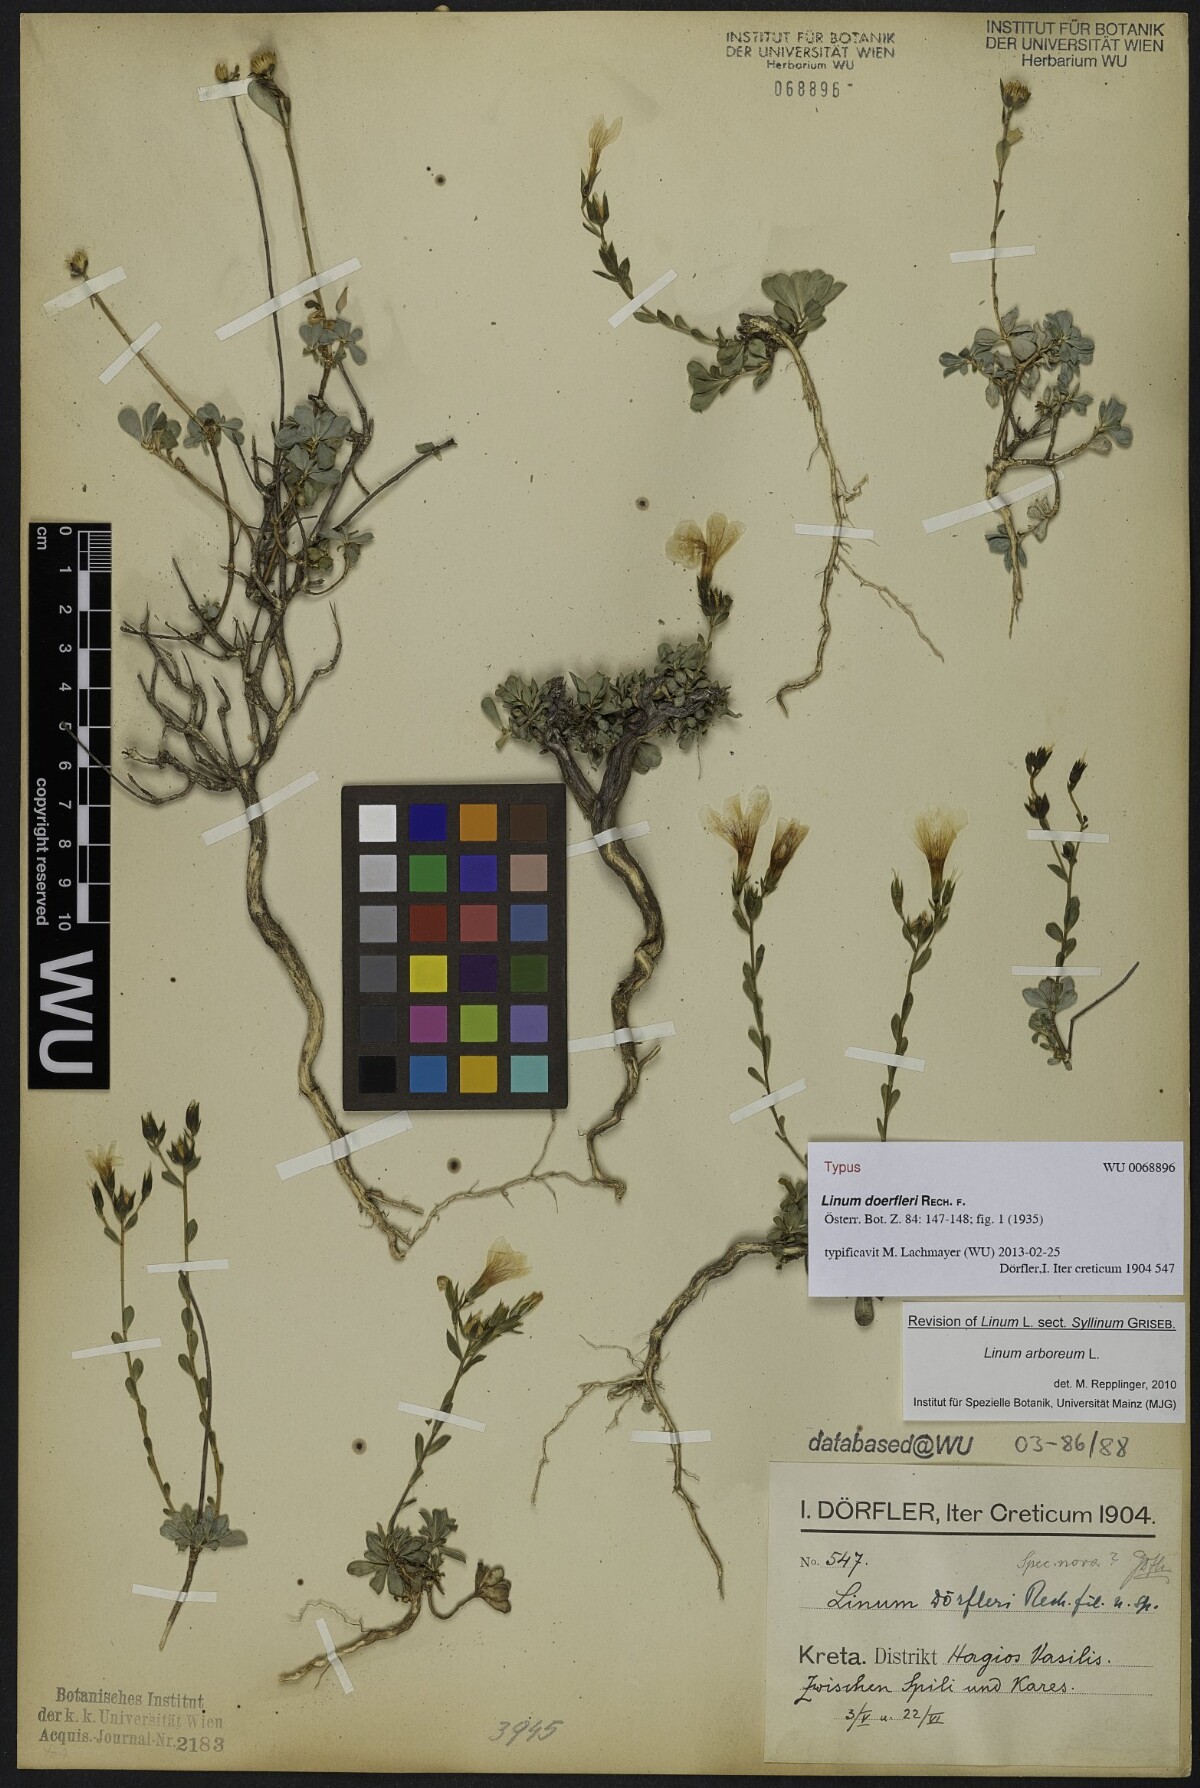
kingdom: Plantae
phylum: Tracheophyta
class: Magnoliopsida
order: Malpighiales
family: Linaceae
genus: Linum
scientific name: Linum doerfleri
